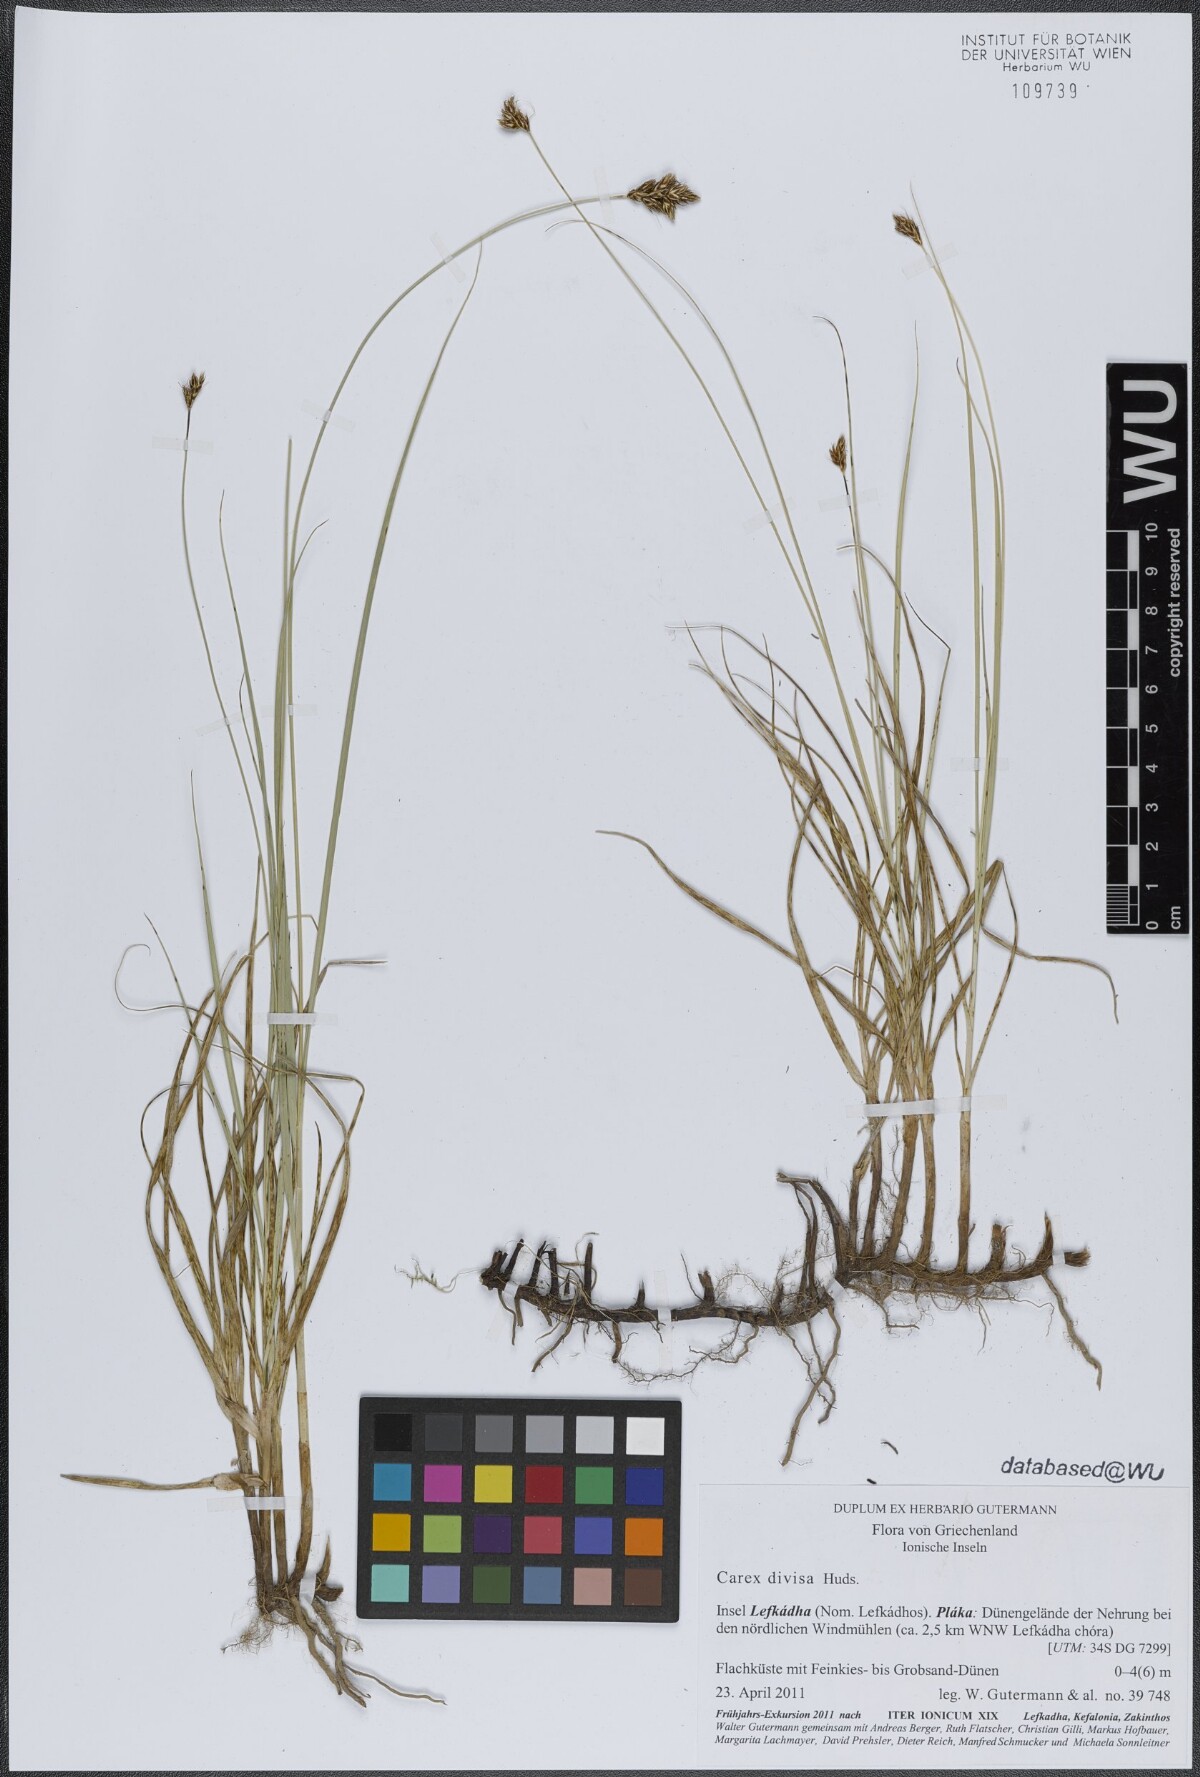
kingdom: Plantae
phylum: Tracheophyta
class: Liliopsida
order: Poales
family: Cyperaceae
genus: Carex
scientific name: Carex divisa
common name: Divided sedge
